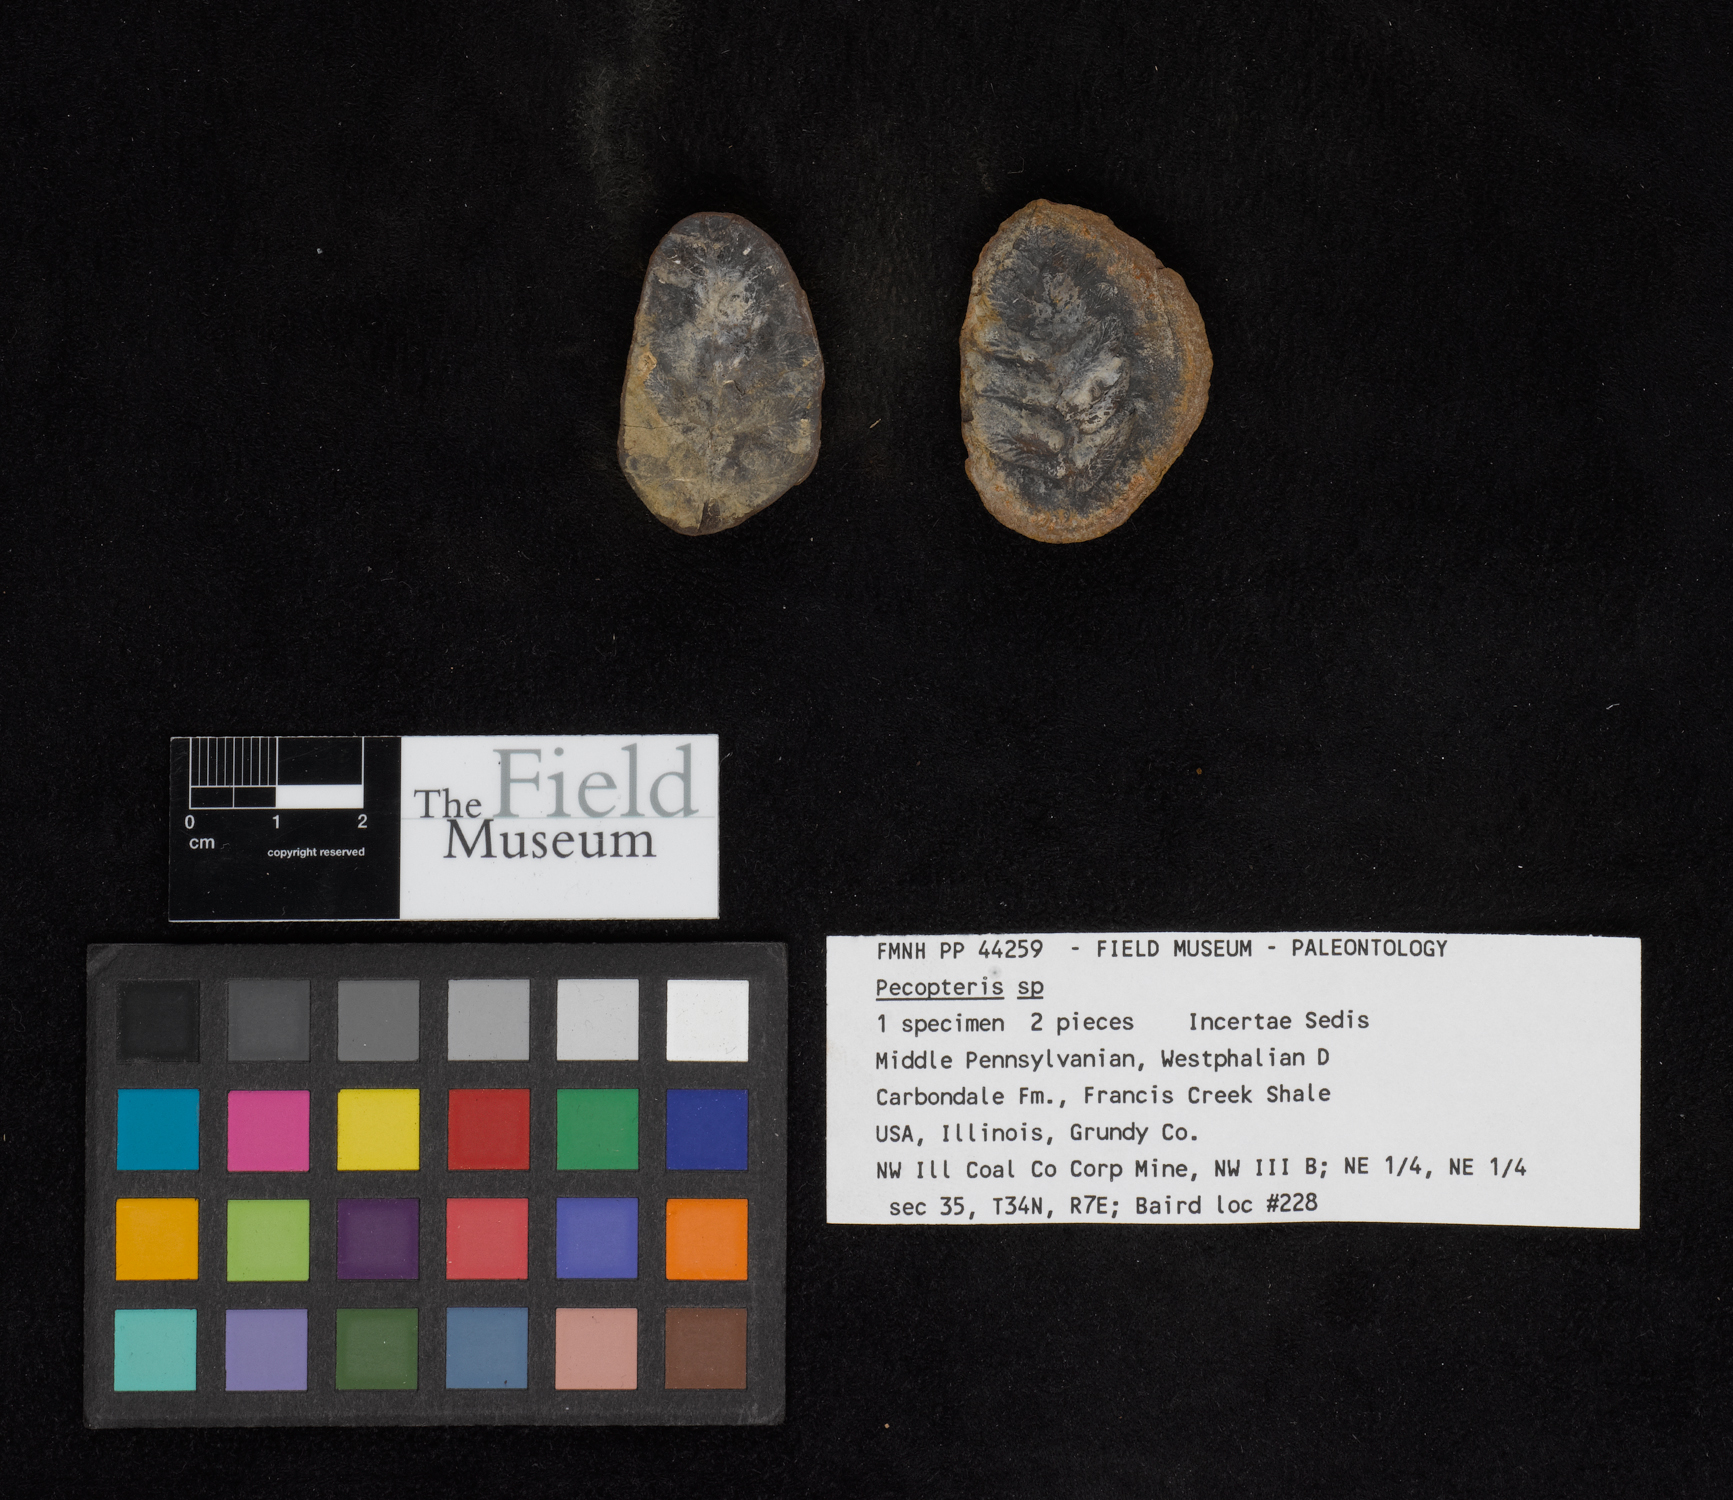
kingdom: Plantae
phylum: Tracheophyta
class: Polypodiopsida
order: Marattiales
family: Asterothecaceae
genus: Pecopteris
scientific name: Pecopteris
